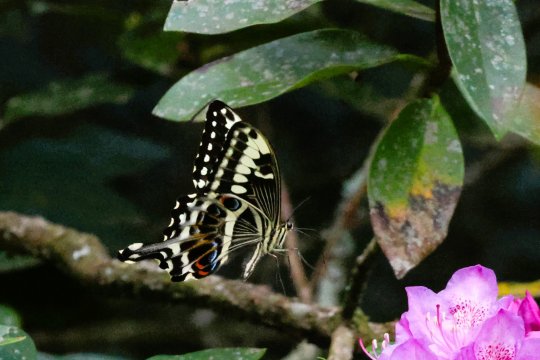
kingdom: Animalia
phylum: Arthropoda
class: Insecta
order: Lepidoptera
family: Papilionidae
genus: Papilio
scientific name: Papilio ophidicephalus
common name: Emperor Swallowtail
